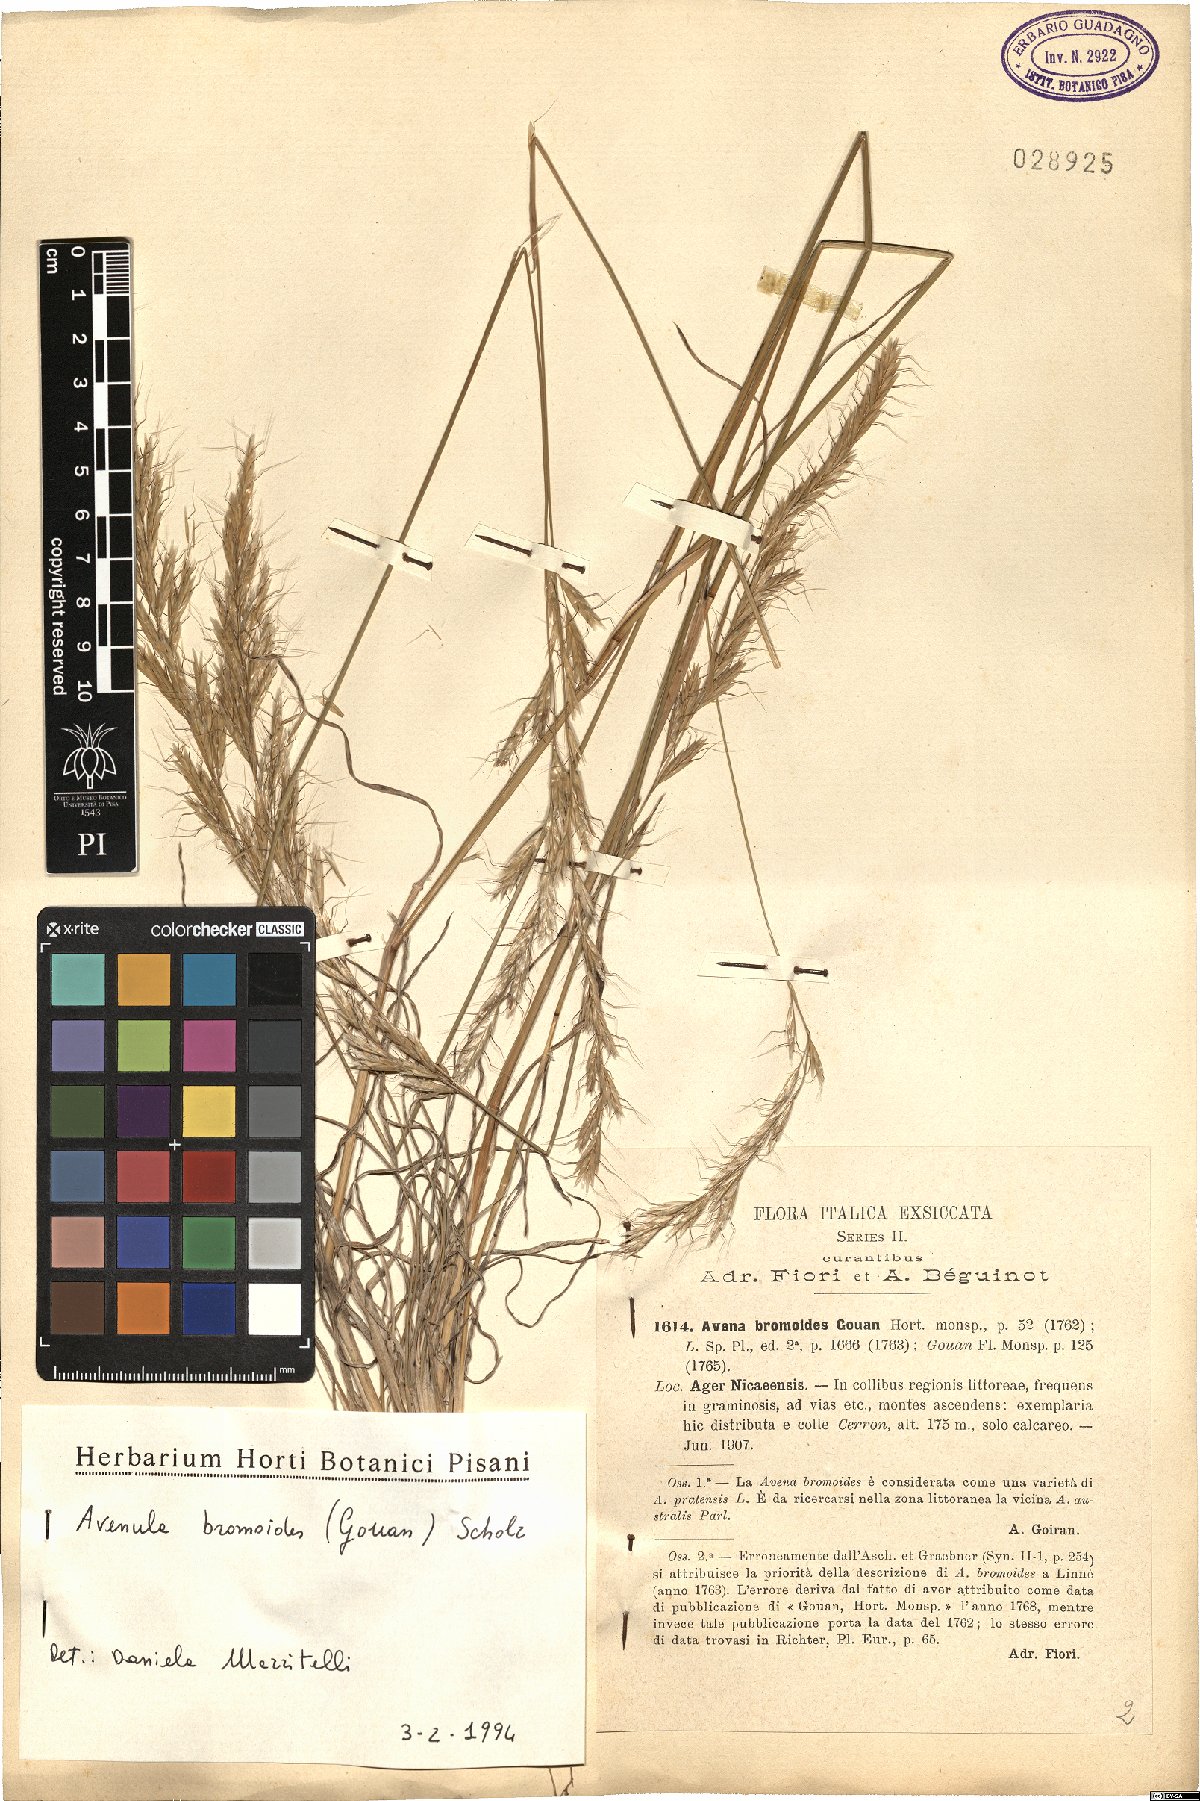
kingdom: Plantae
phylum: Tracheophyta
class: Liliopsida
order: Poales
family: Poaceae
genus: Helictochloa
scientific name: Helictochloa bromoides
